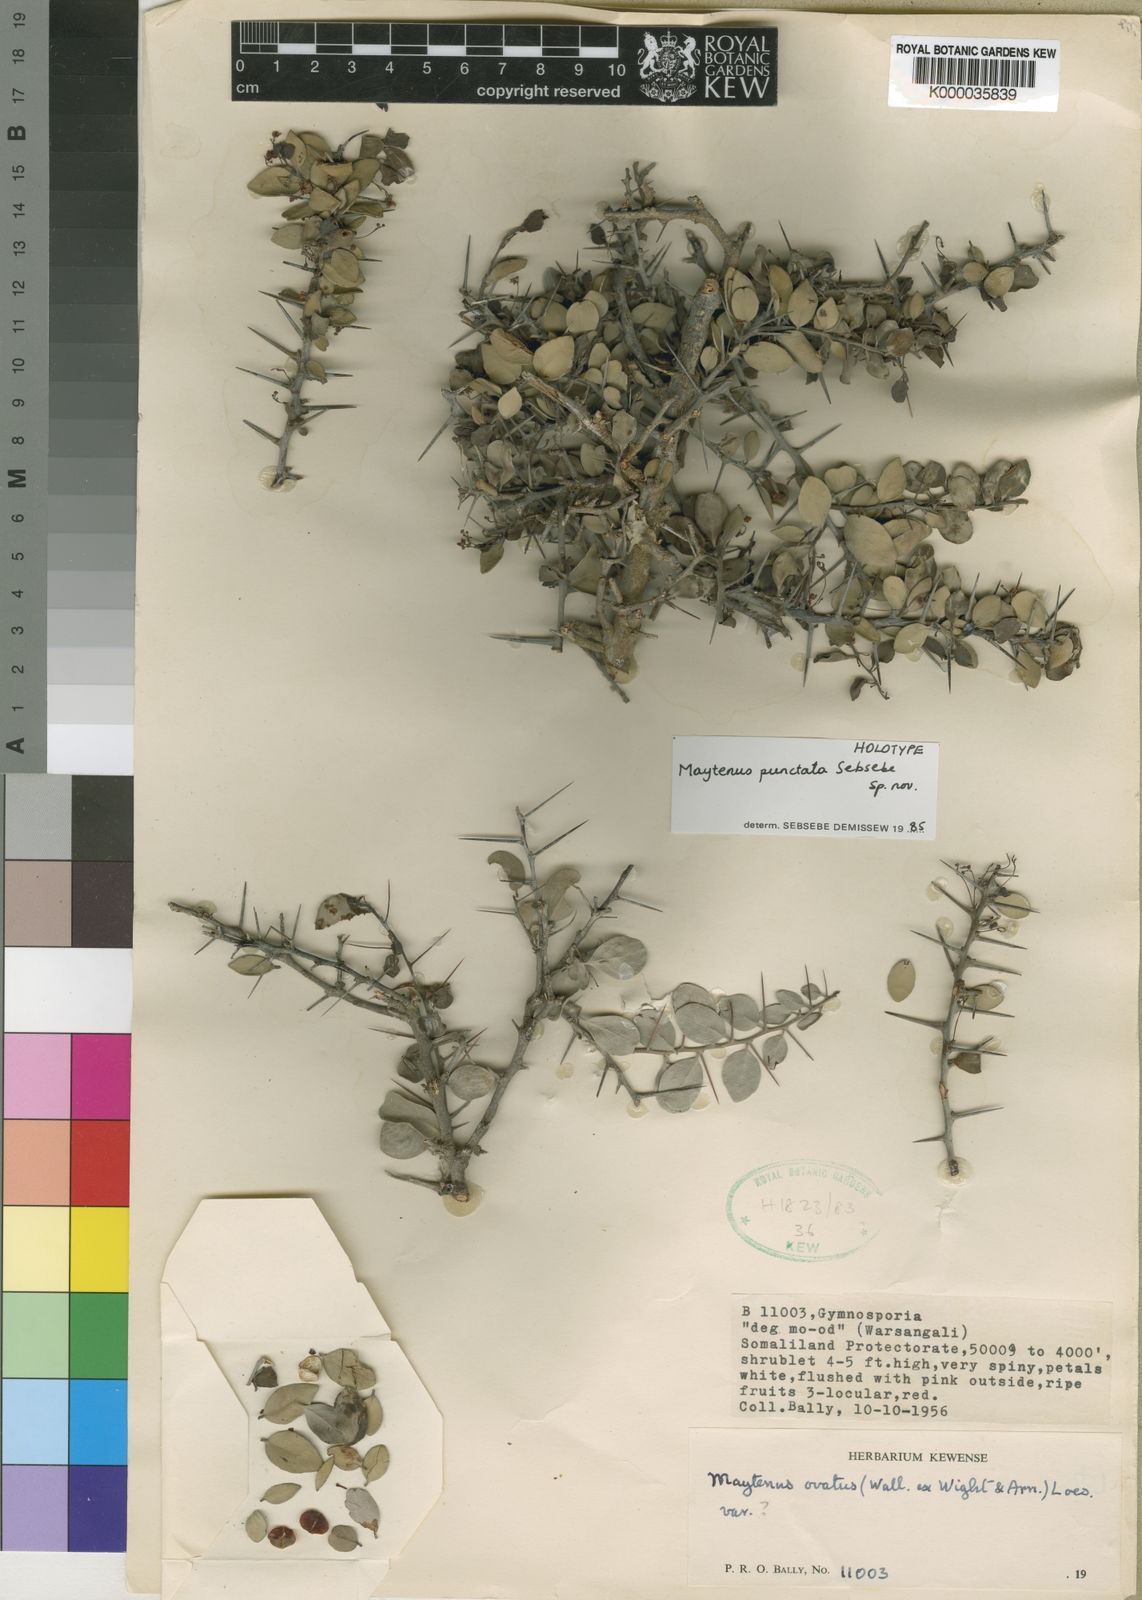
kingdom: Plantae
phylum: Tracheophyta
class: Magnoliopsida
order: Celastrales
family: Celastraceae
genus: Gymnosporia
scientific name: Gymnosporia punctata
